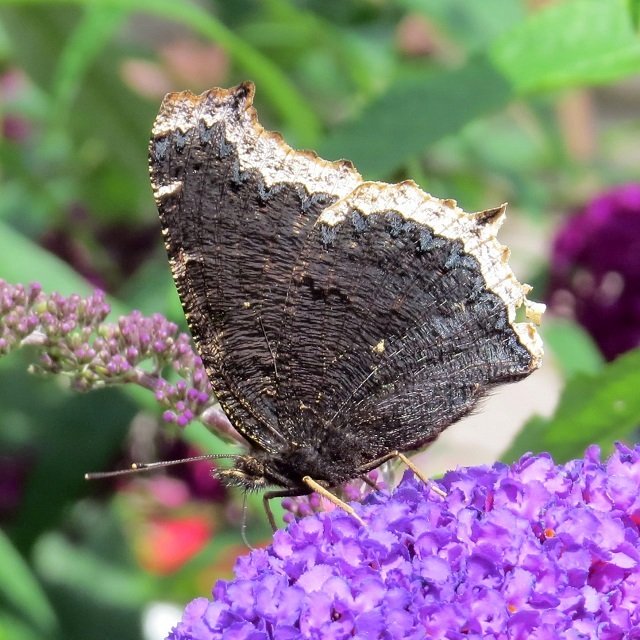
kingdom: Animalia
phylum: Arthropoda
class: Insecta
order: Lepidoptera
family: Nymphalidae
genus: Nymphalis
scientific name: Nymphalis antiopa
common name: Mourning Cloak
